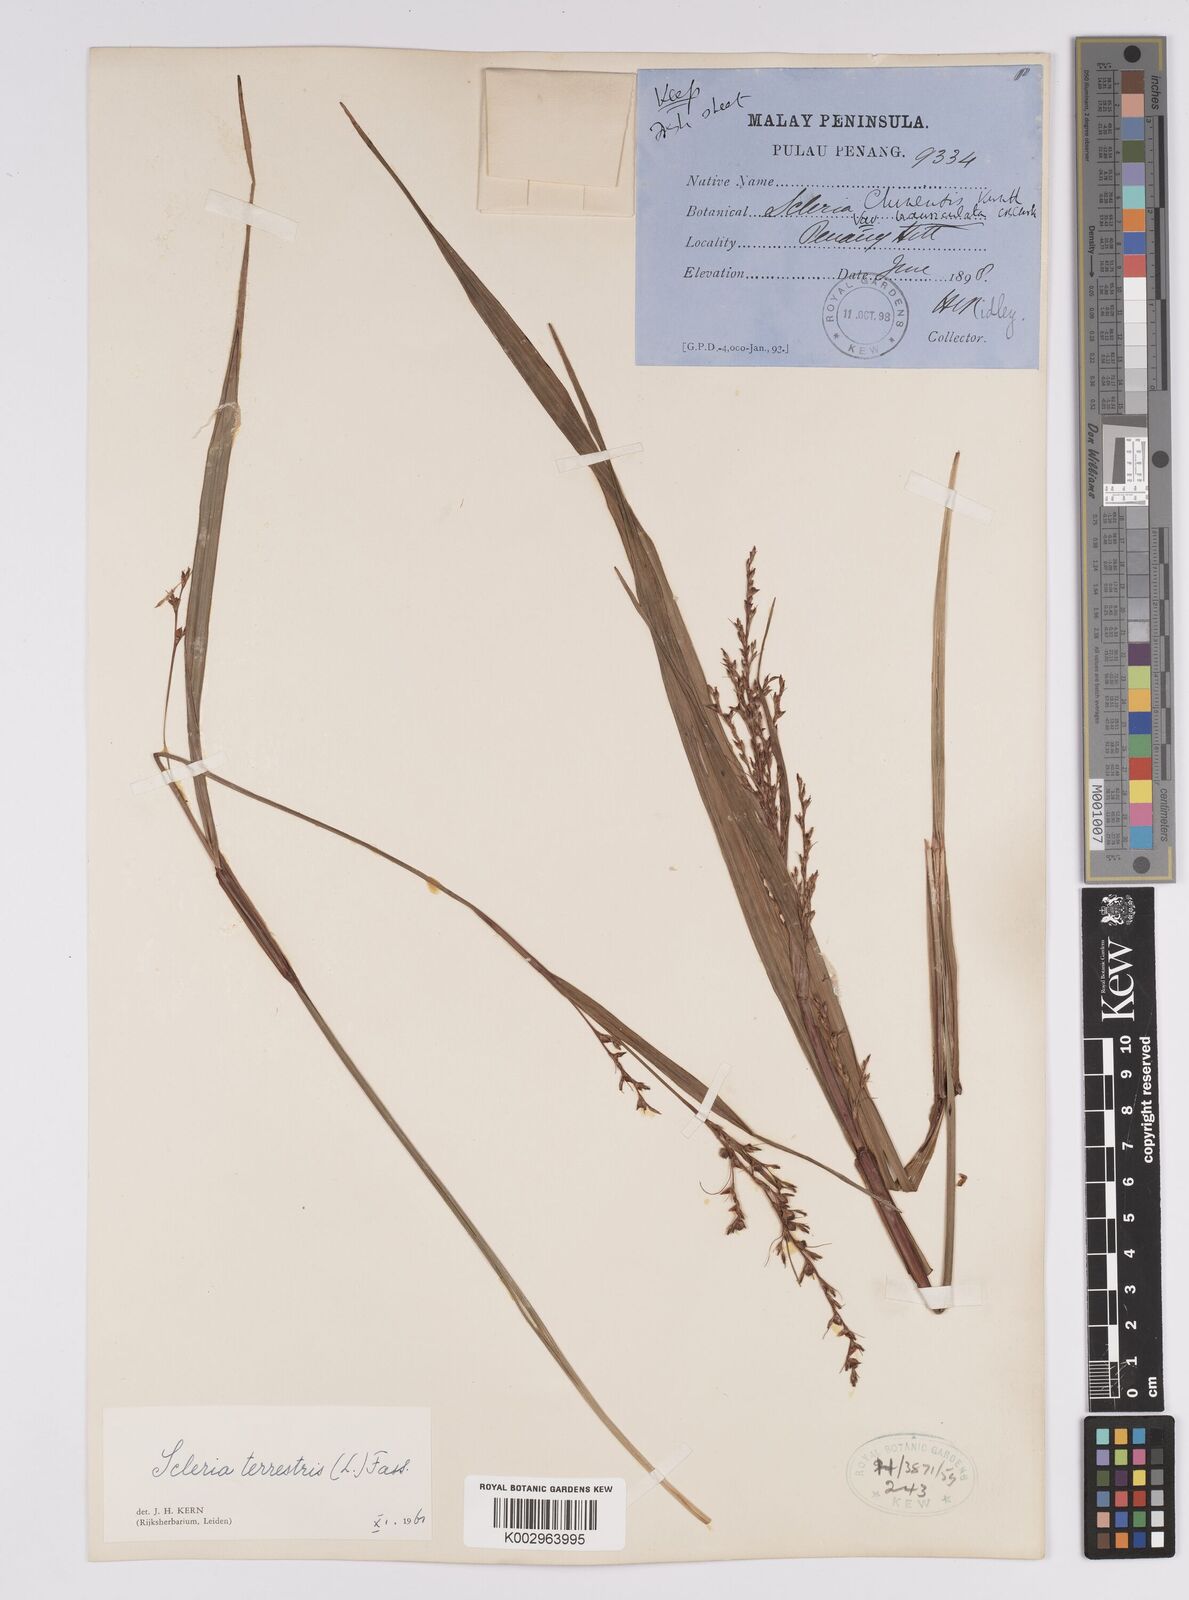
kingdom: Plantae
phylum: Tracheophyta
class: Liliopsida
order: Poales
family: Cyperaceae
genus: Scleria
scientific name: Scleria
